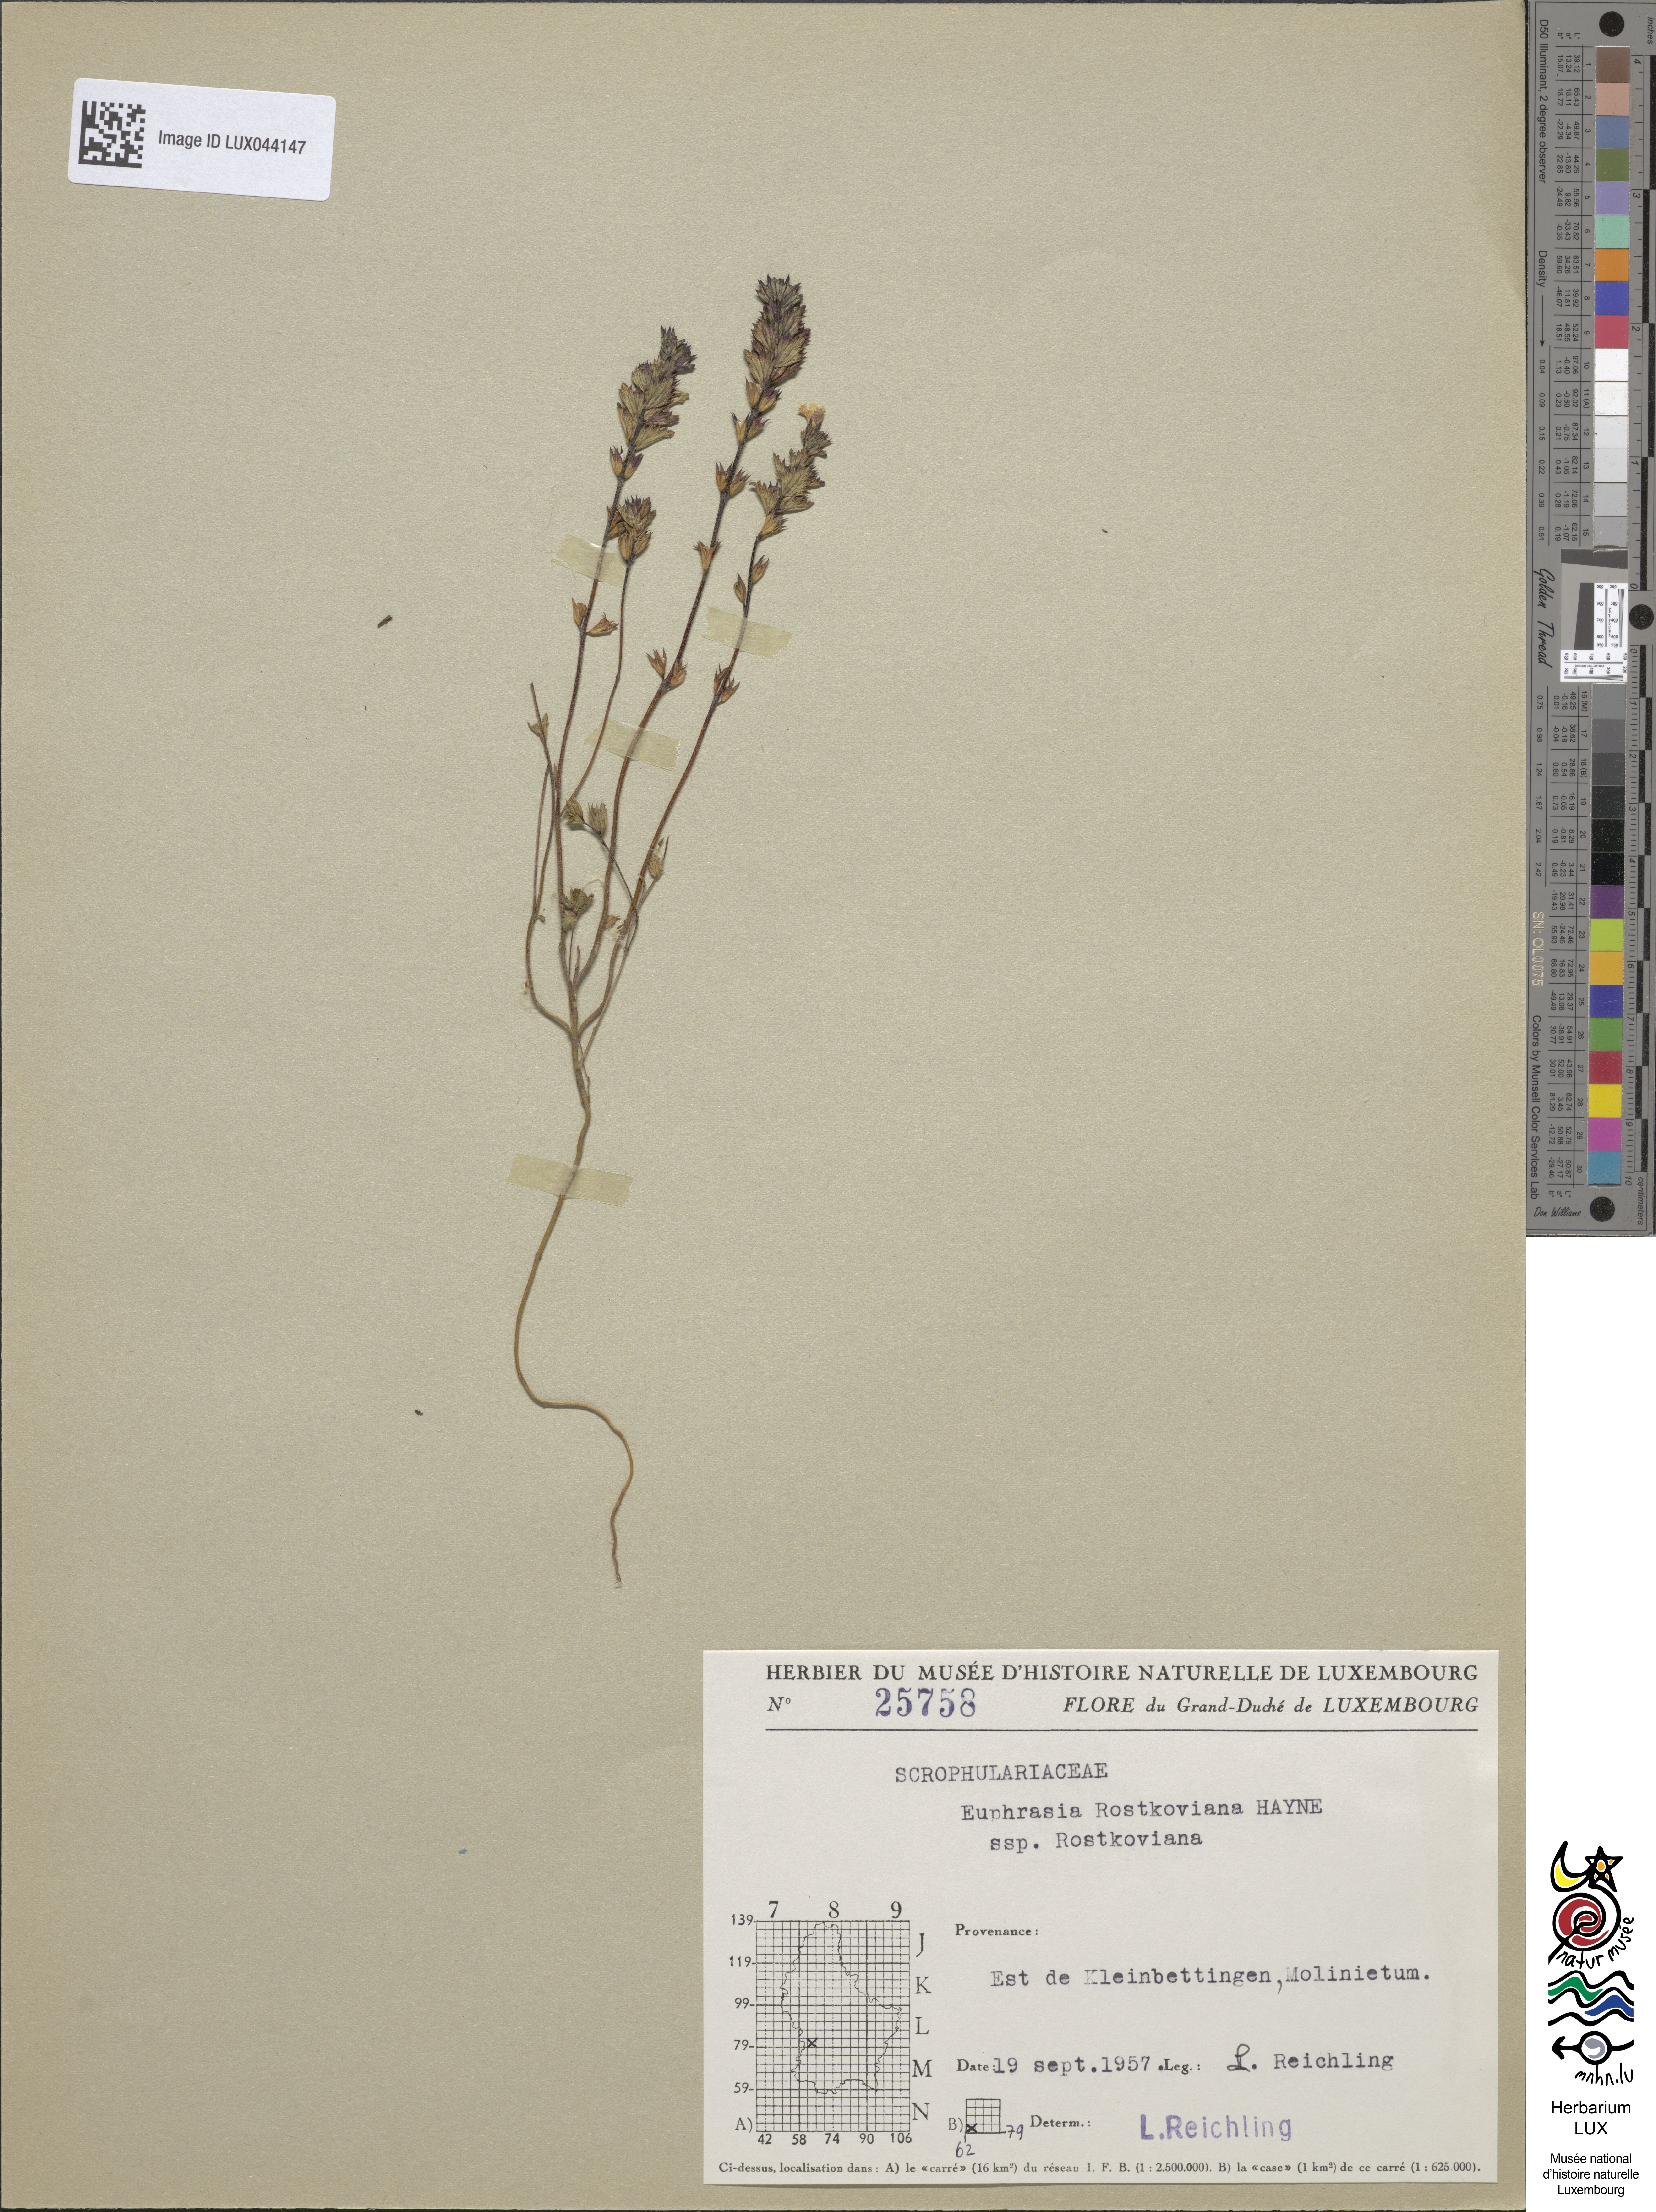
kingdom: Plantae
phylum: Tracheophyta
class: Magnoliopsida
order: Lamiales
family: Orobanchaceae
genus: Euphrasia
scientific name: Euphrasia officinalis
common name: Eyebright
